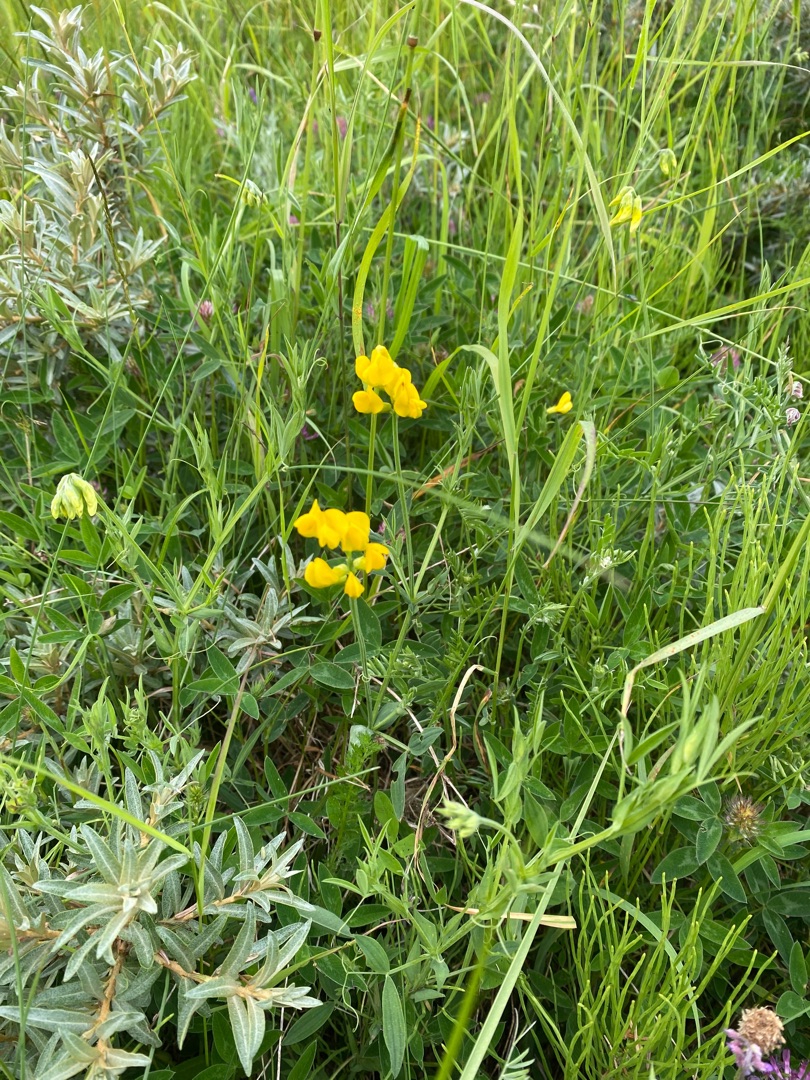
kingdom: Plantae
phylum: Tracheophyta
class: Magnoliopsida
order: Fabales
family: Fabaceae
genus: Lathyrus
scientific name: Lathyrus pratensis
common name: Gul fladbælg
